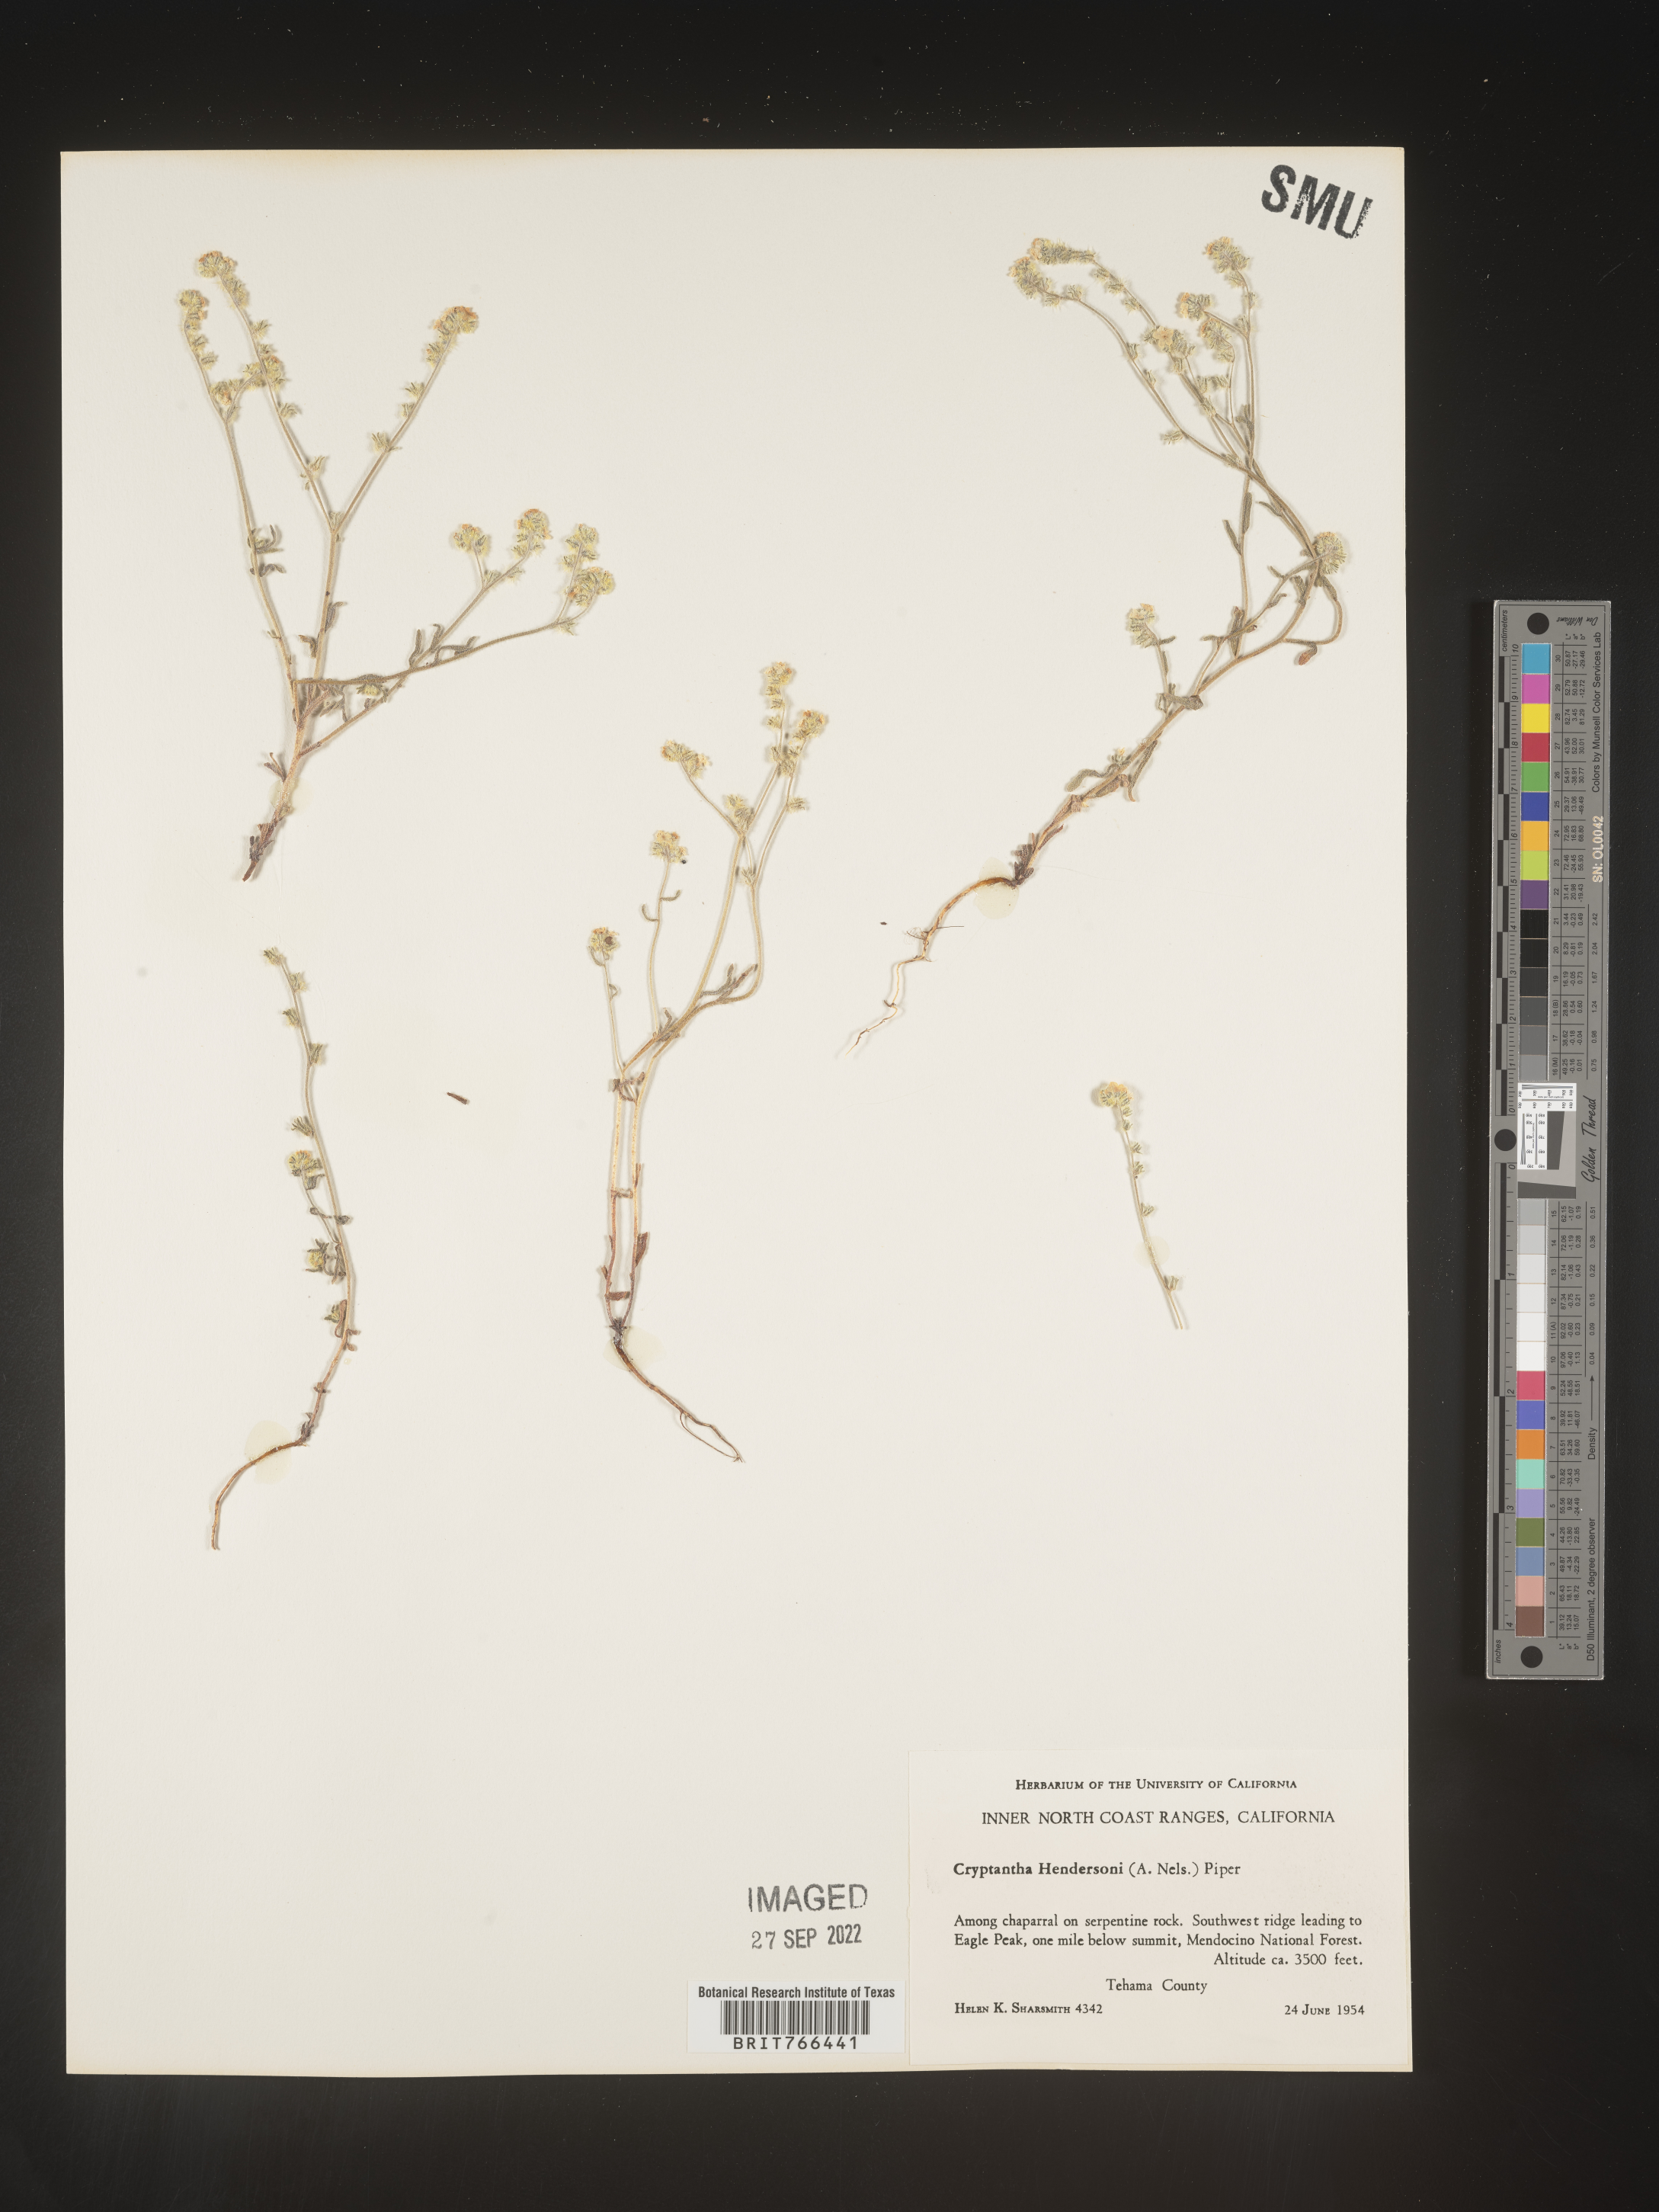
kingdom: Plantae
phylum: Tracheophyta
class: Magnoliopsida
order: Boraginales
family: Boraginaceae
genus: Cryptantha
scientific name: Cryptantha
